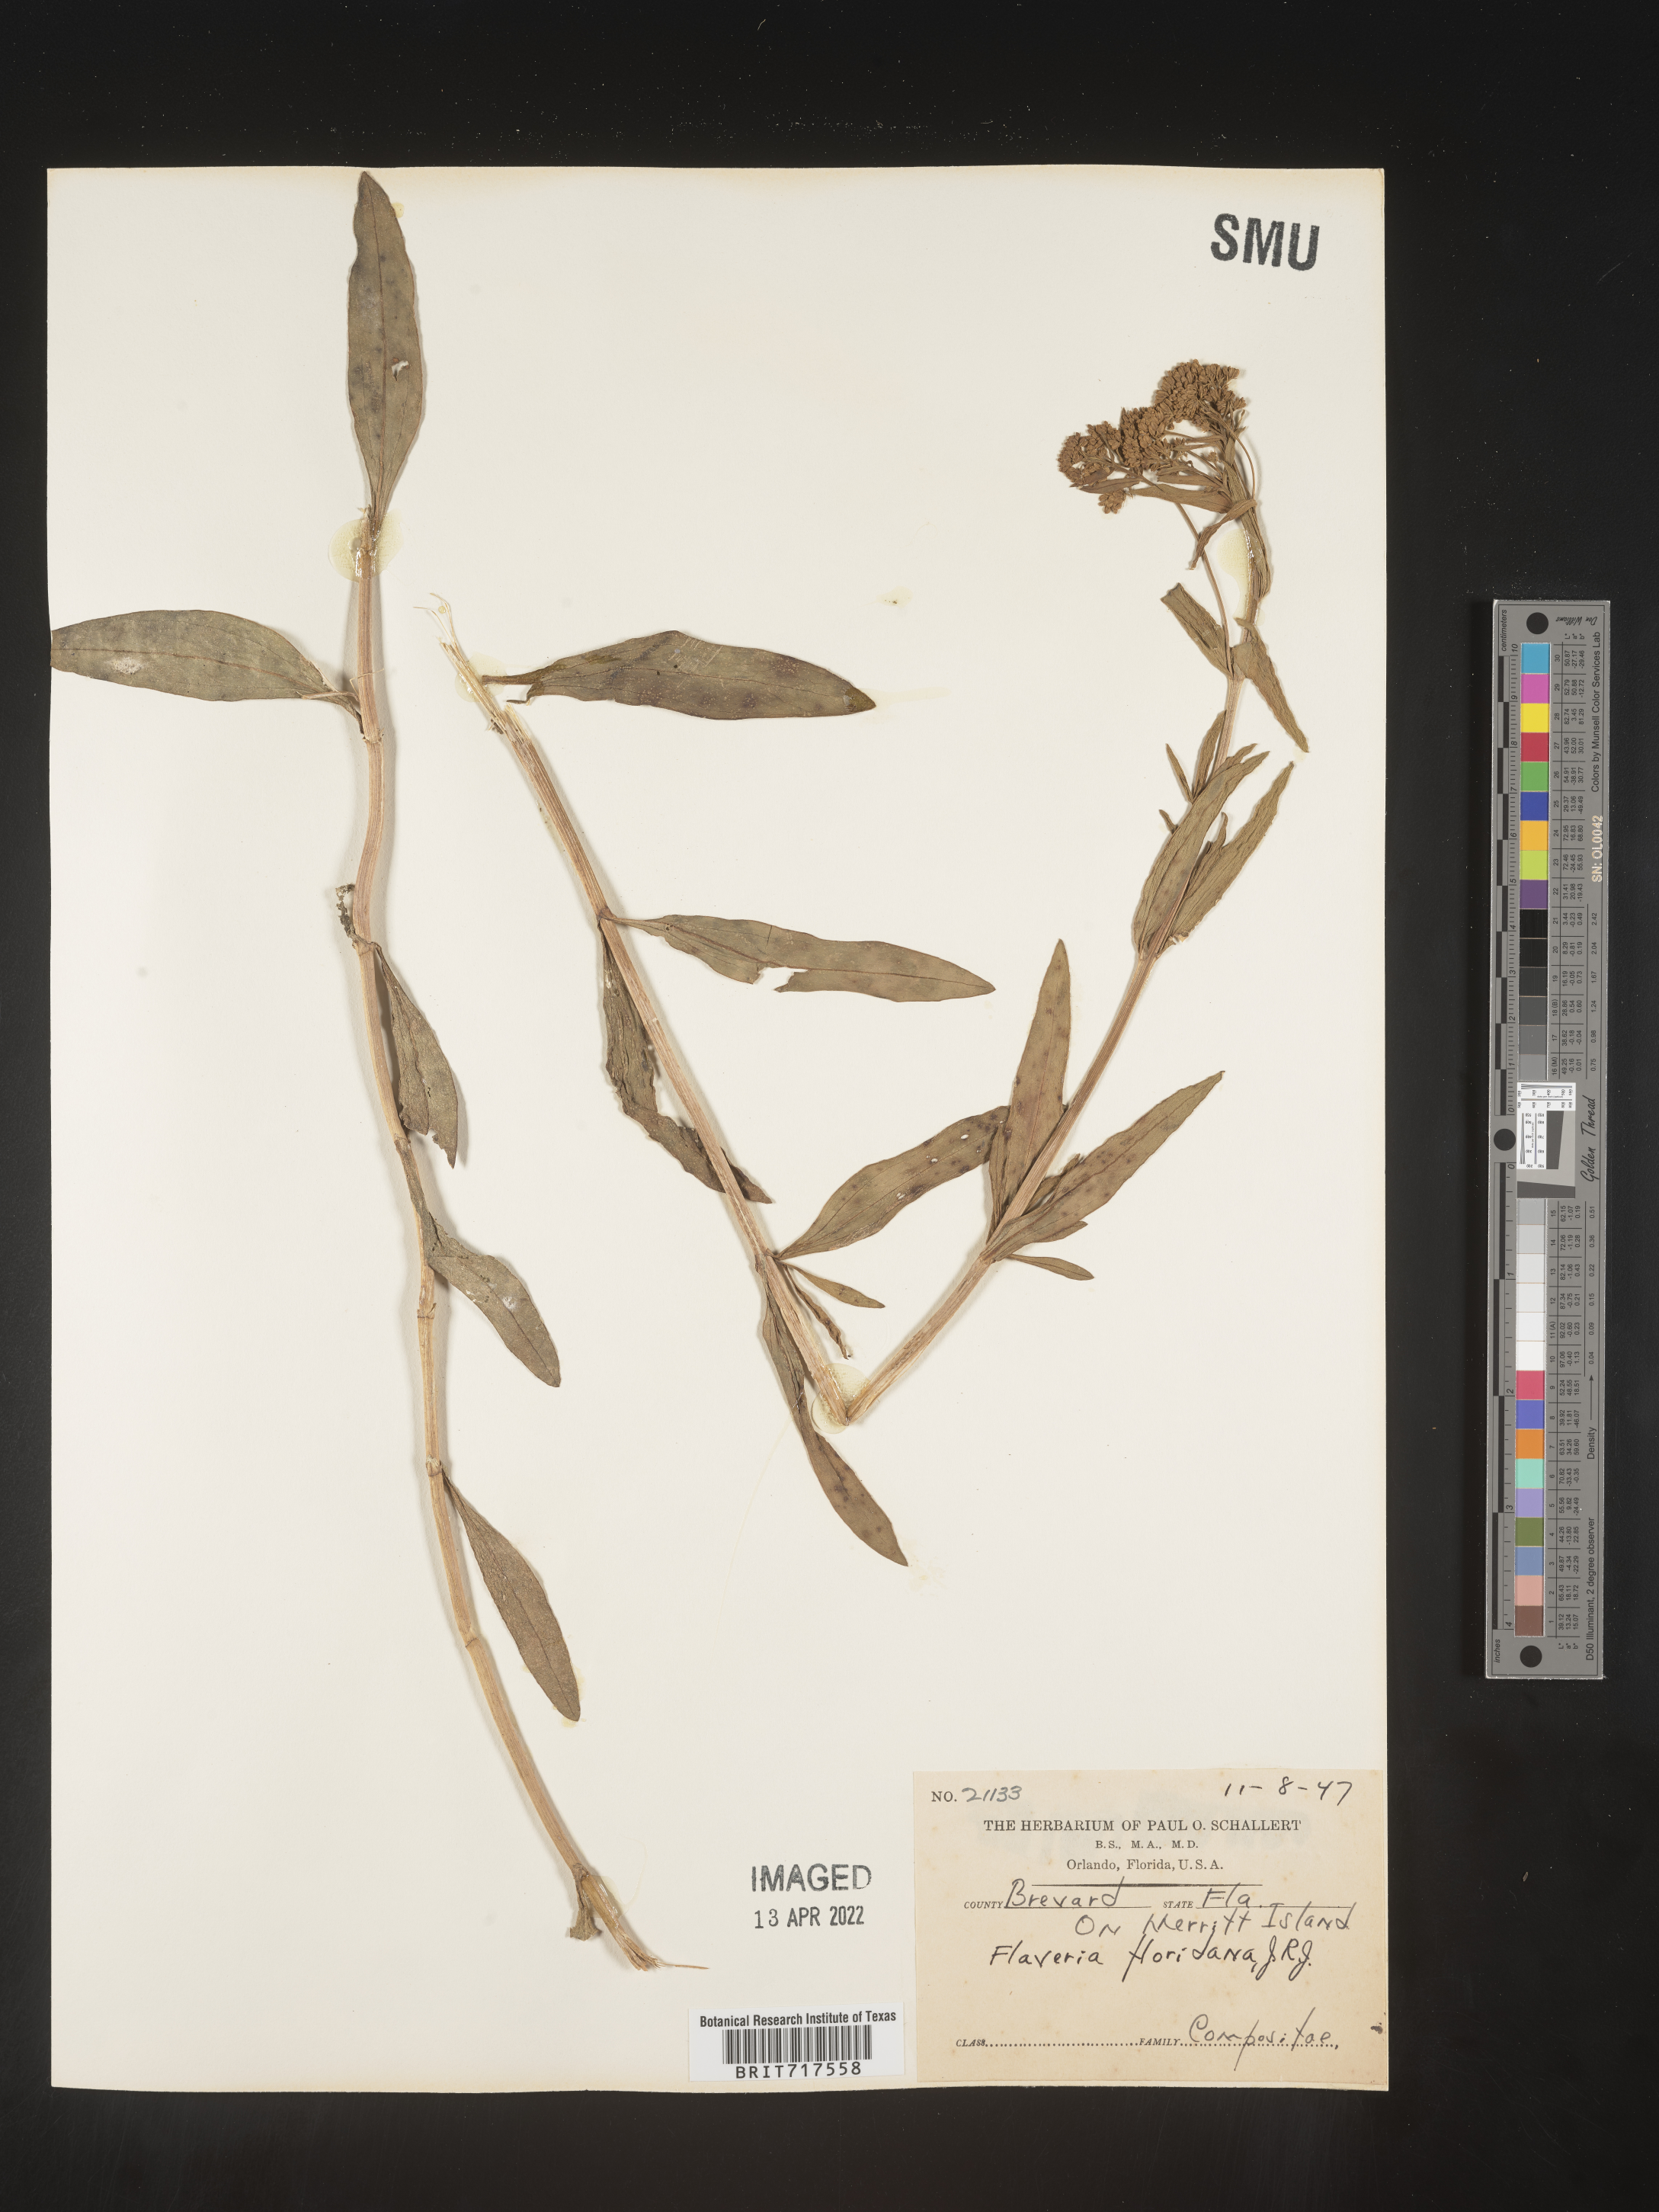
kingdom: Plantae
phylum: Tracheophyta
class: Magnoliopsida
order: Asterales
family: Asteraceae
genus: Flaveria
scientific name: Flaveria floridana
